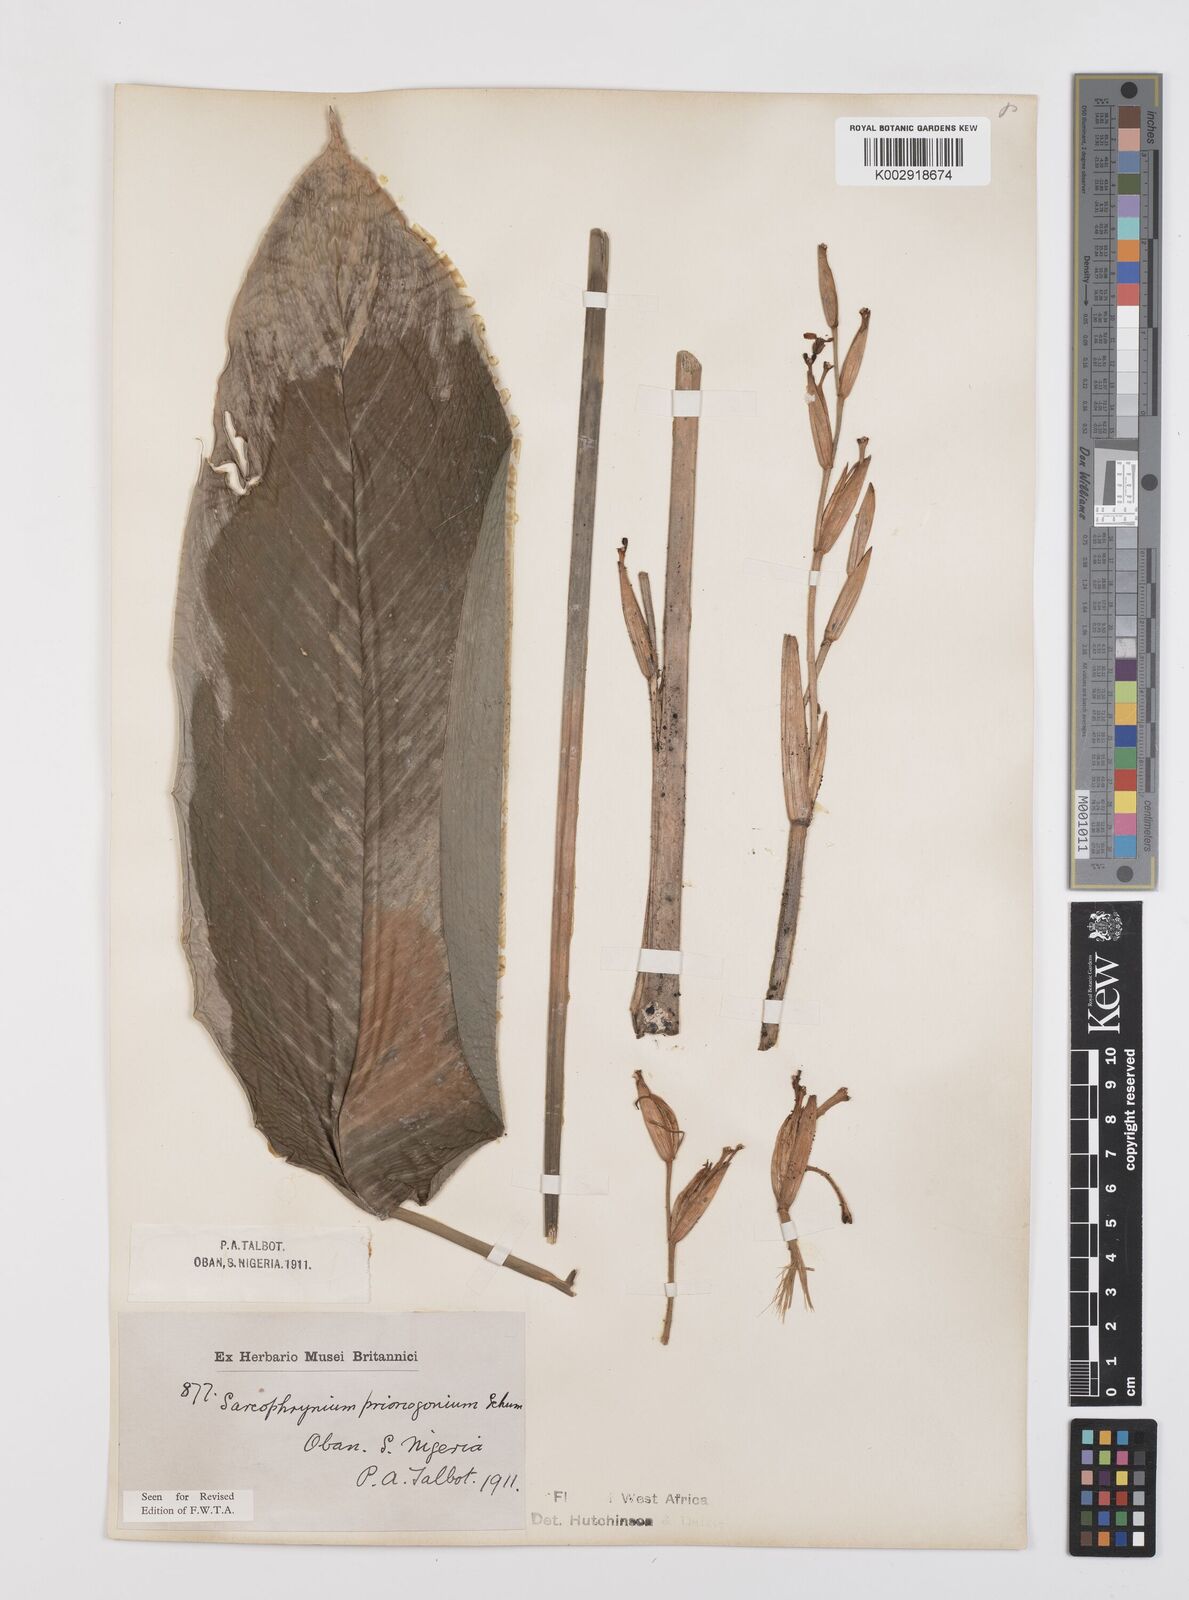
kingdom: Plantae
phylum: Tracheophyta
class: Liliopsida
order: Zingiberales
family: Marantaceae
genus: Sarcophrynium
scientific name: Sarcophrynium prionogonium
